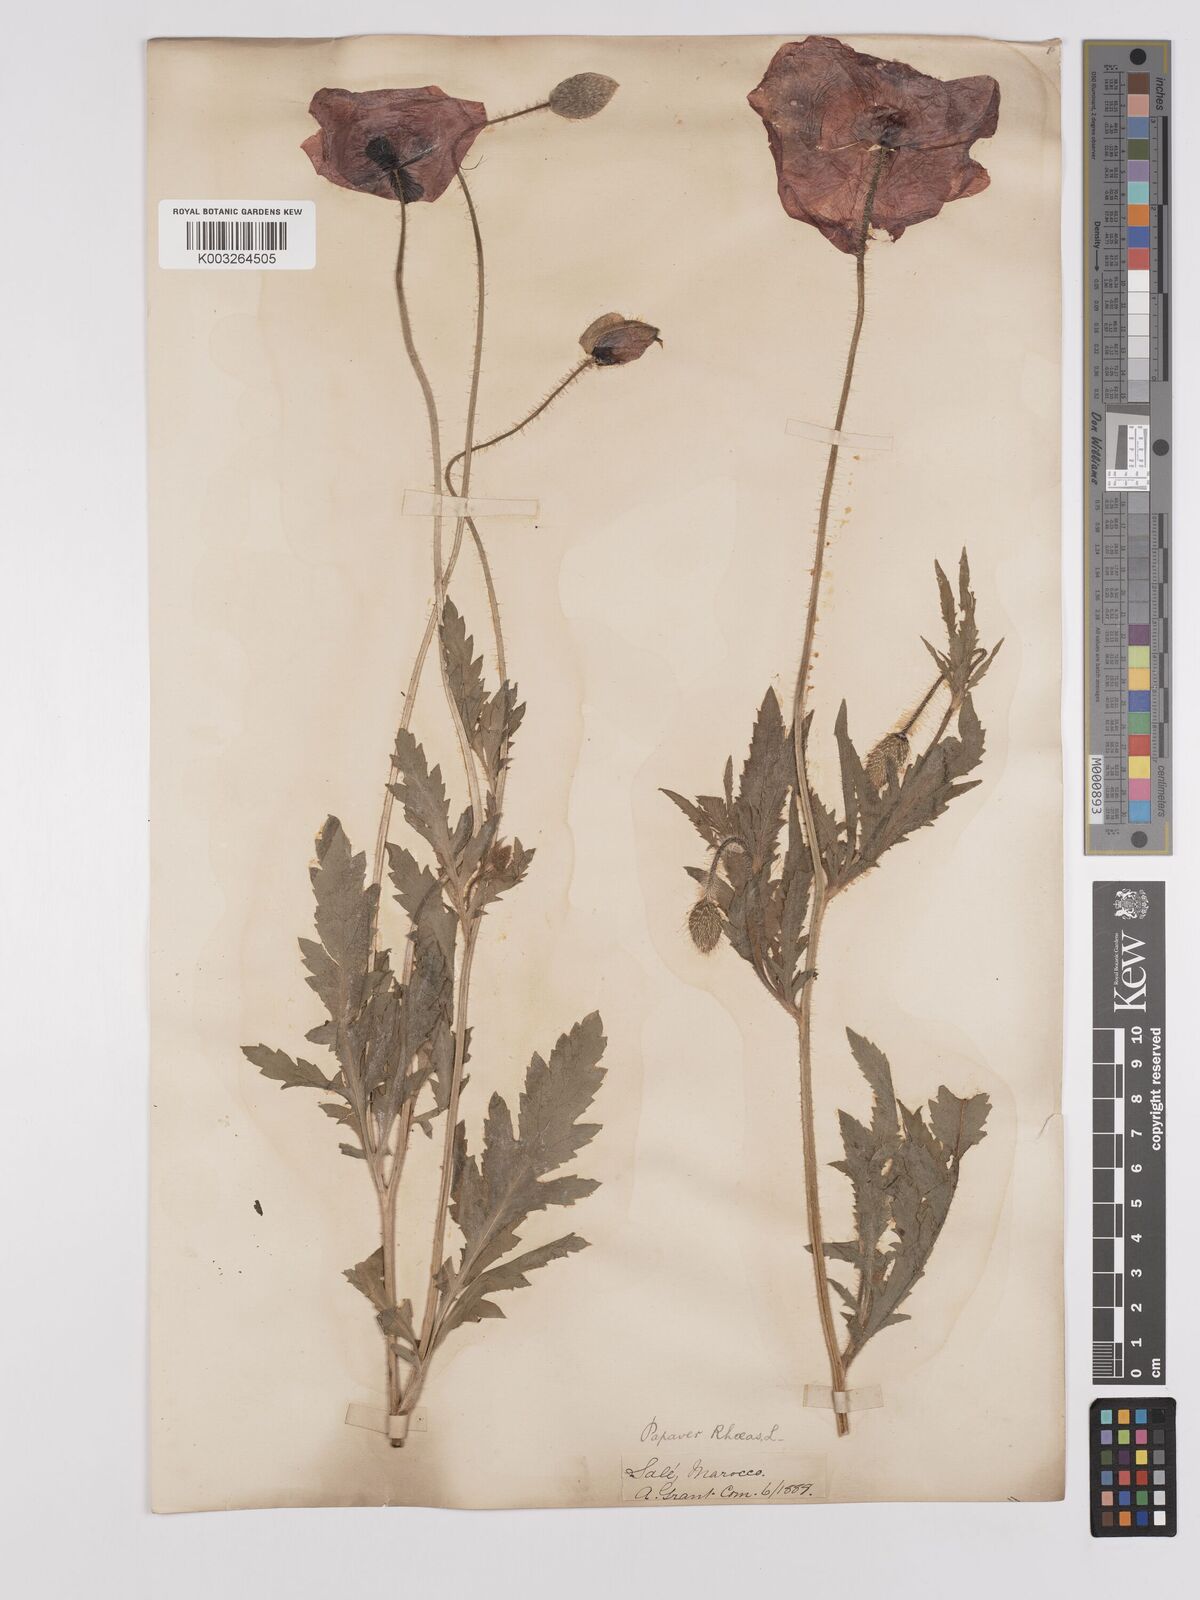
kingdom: Plantae
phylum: Tracheophyta
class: Magnoliopsida
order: Ranunculales
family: Papaveraceae
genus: Papaver
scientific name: Papaver rhoeas
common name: Corn poppy
